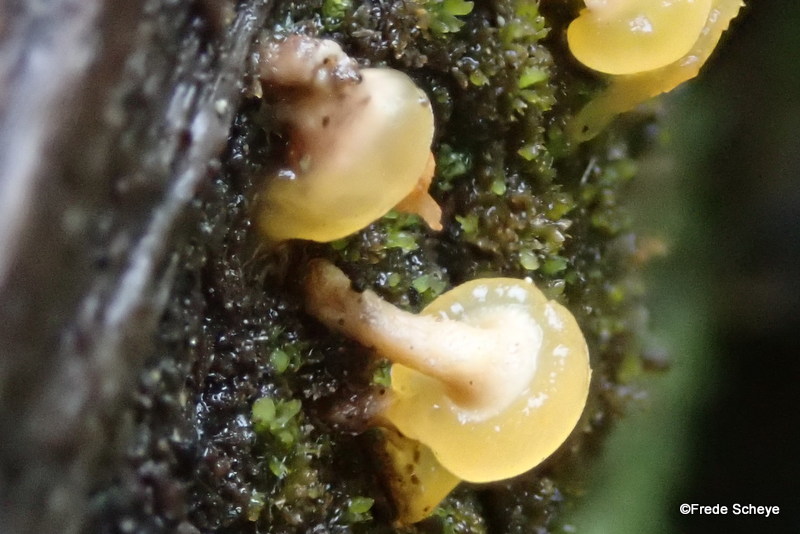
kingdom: Fungi
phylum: Basidiomycota
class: Dacrymycetes
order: Dacrymycetales
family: Dacrymycetaceae
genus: Ditiola
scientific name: Ditiola radicata
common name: rod-tåresvamp
